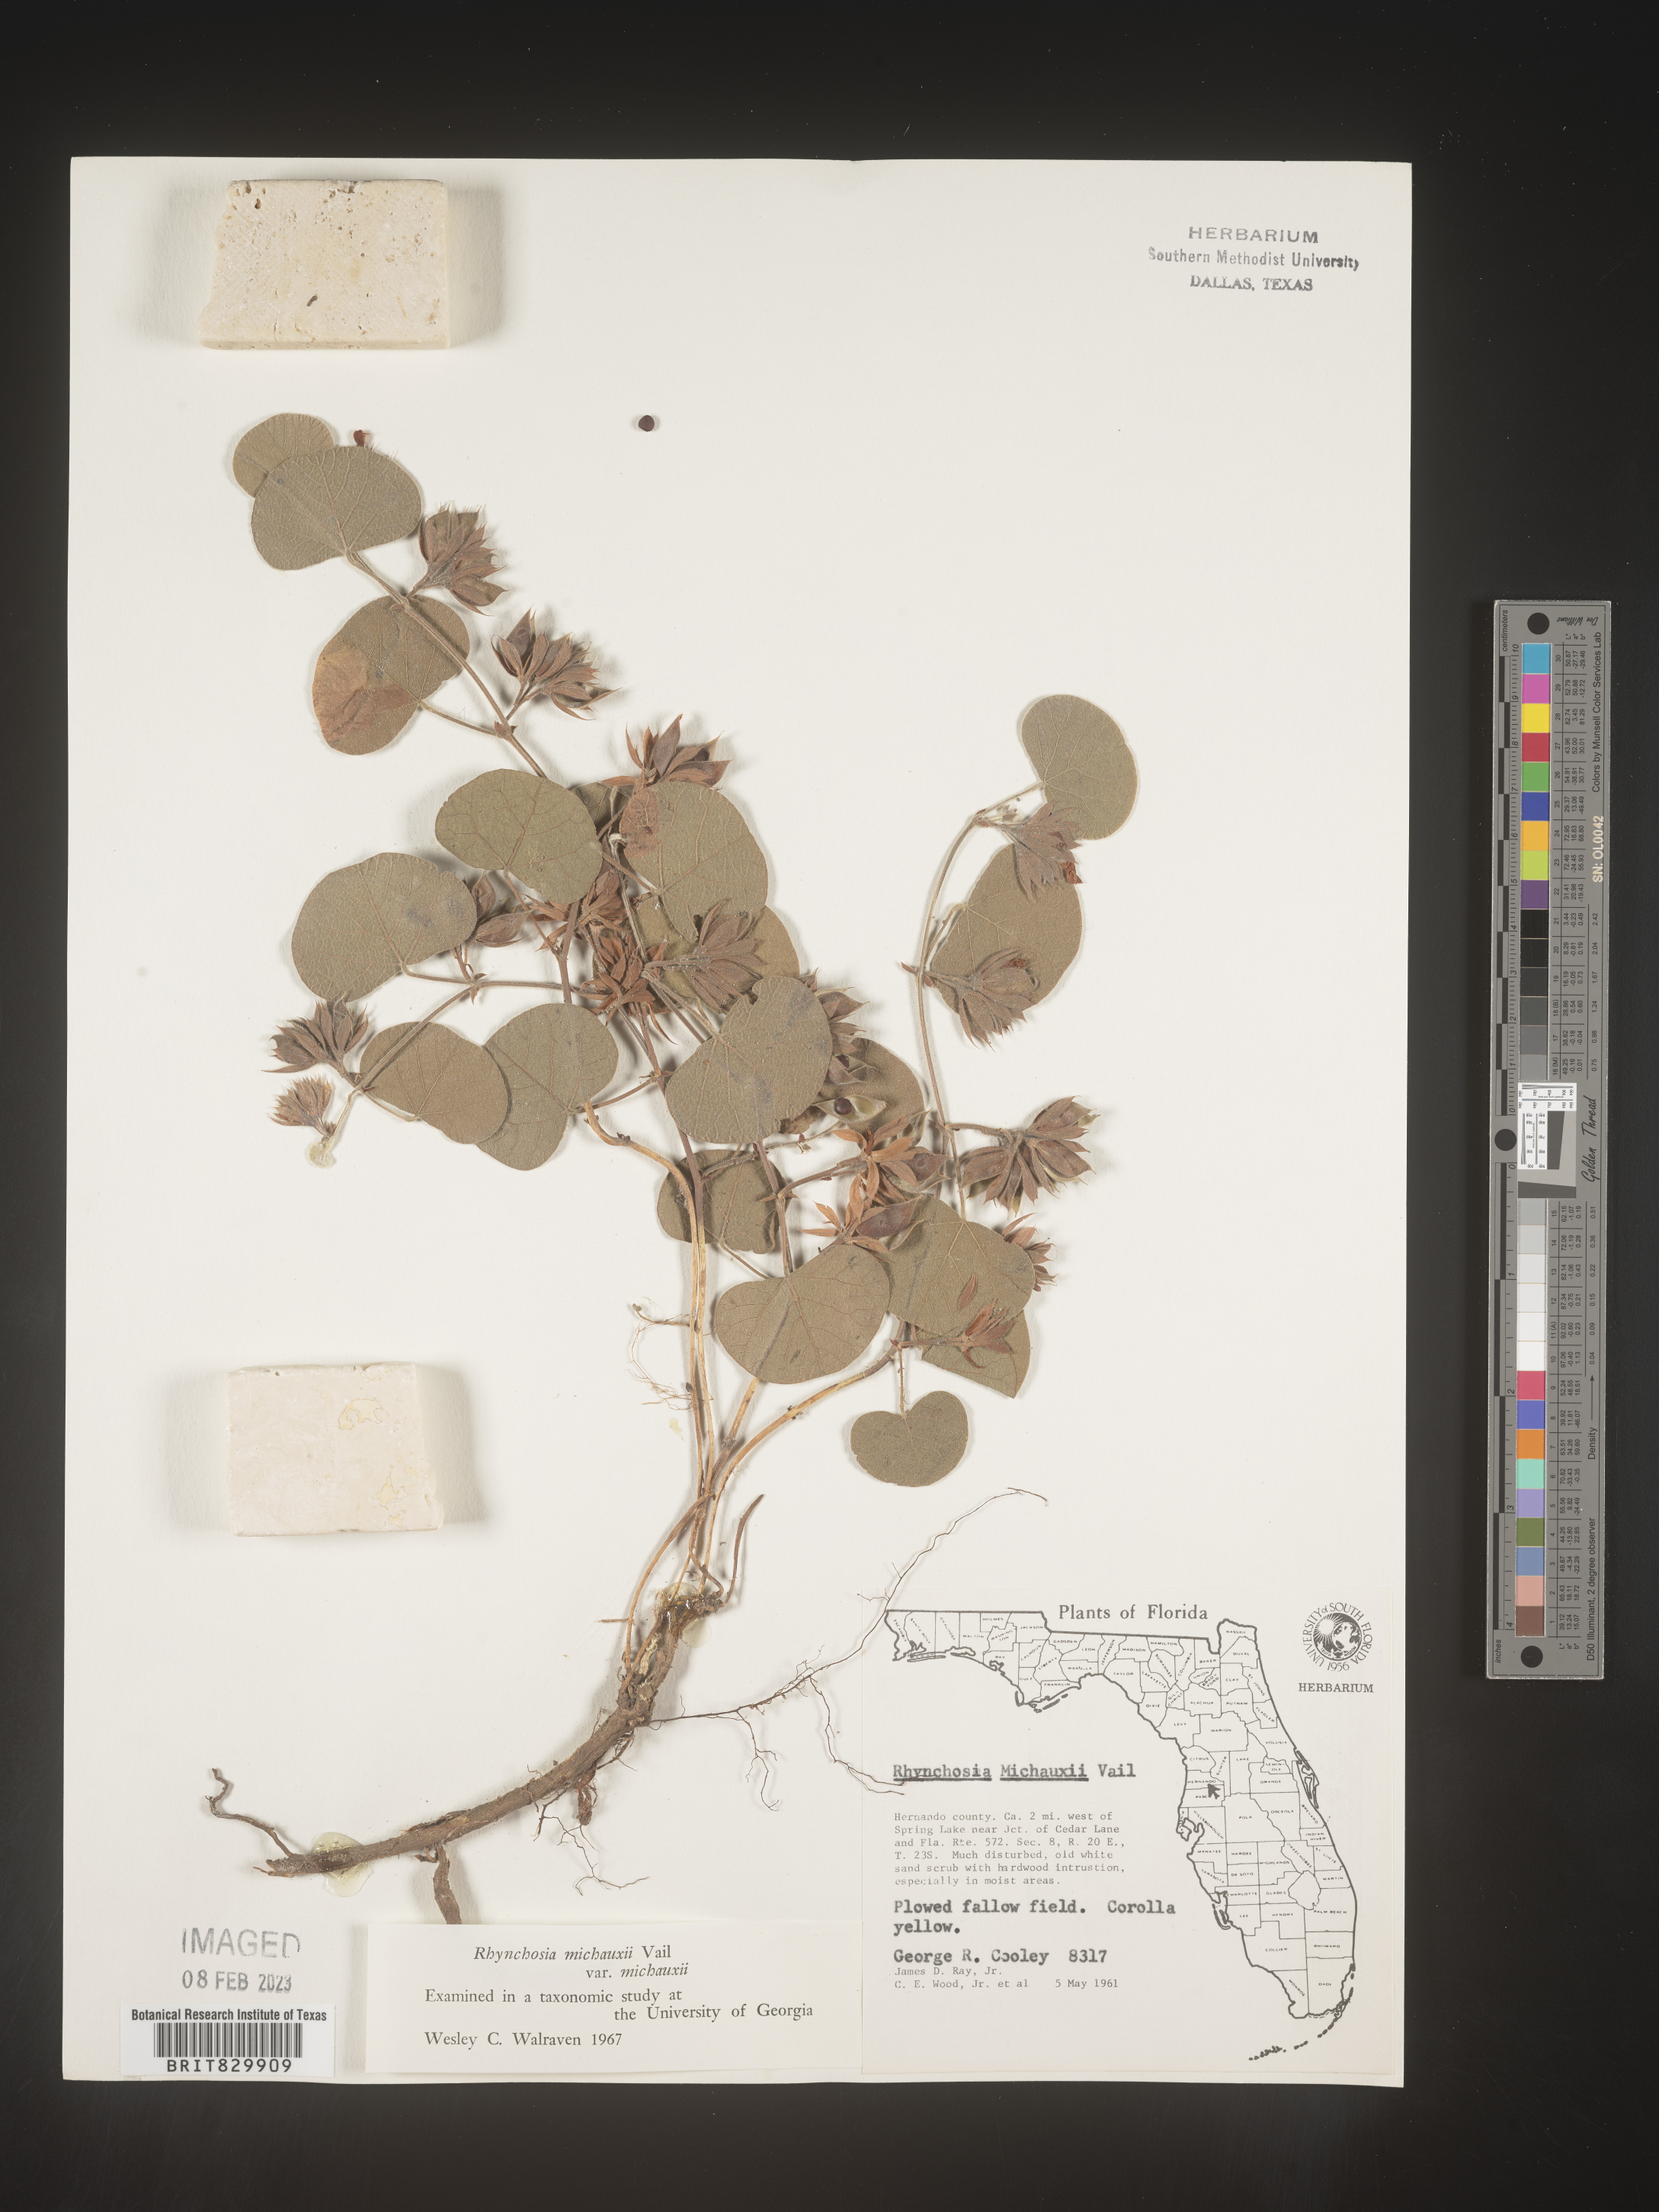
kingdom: Plantae
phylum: Tracheophyta
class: Magnoliopsida
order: Fabales
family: Fabaceae
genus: Rhynchosia
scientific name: Rhynchosia
